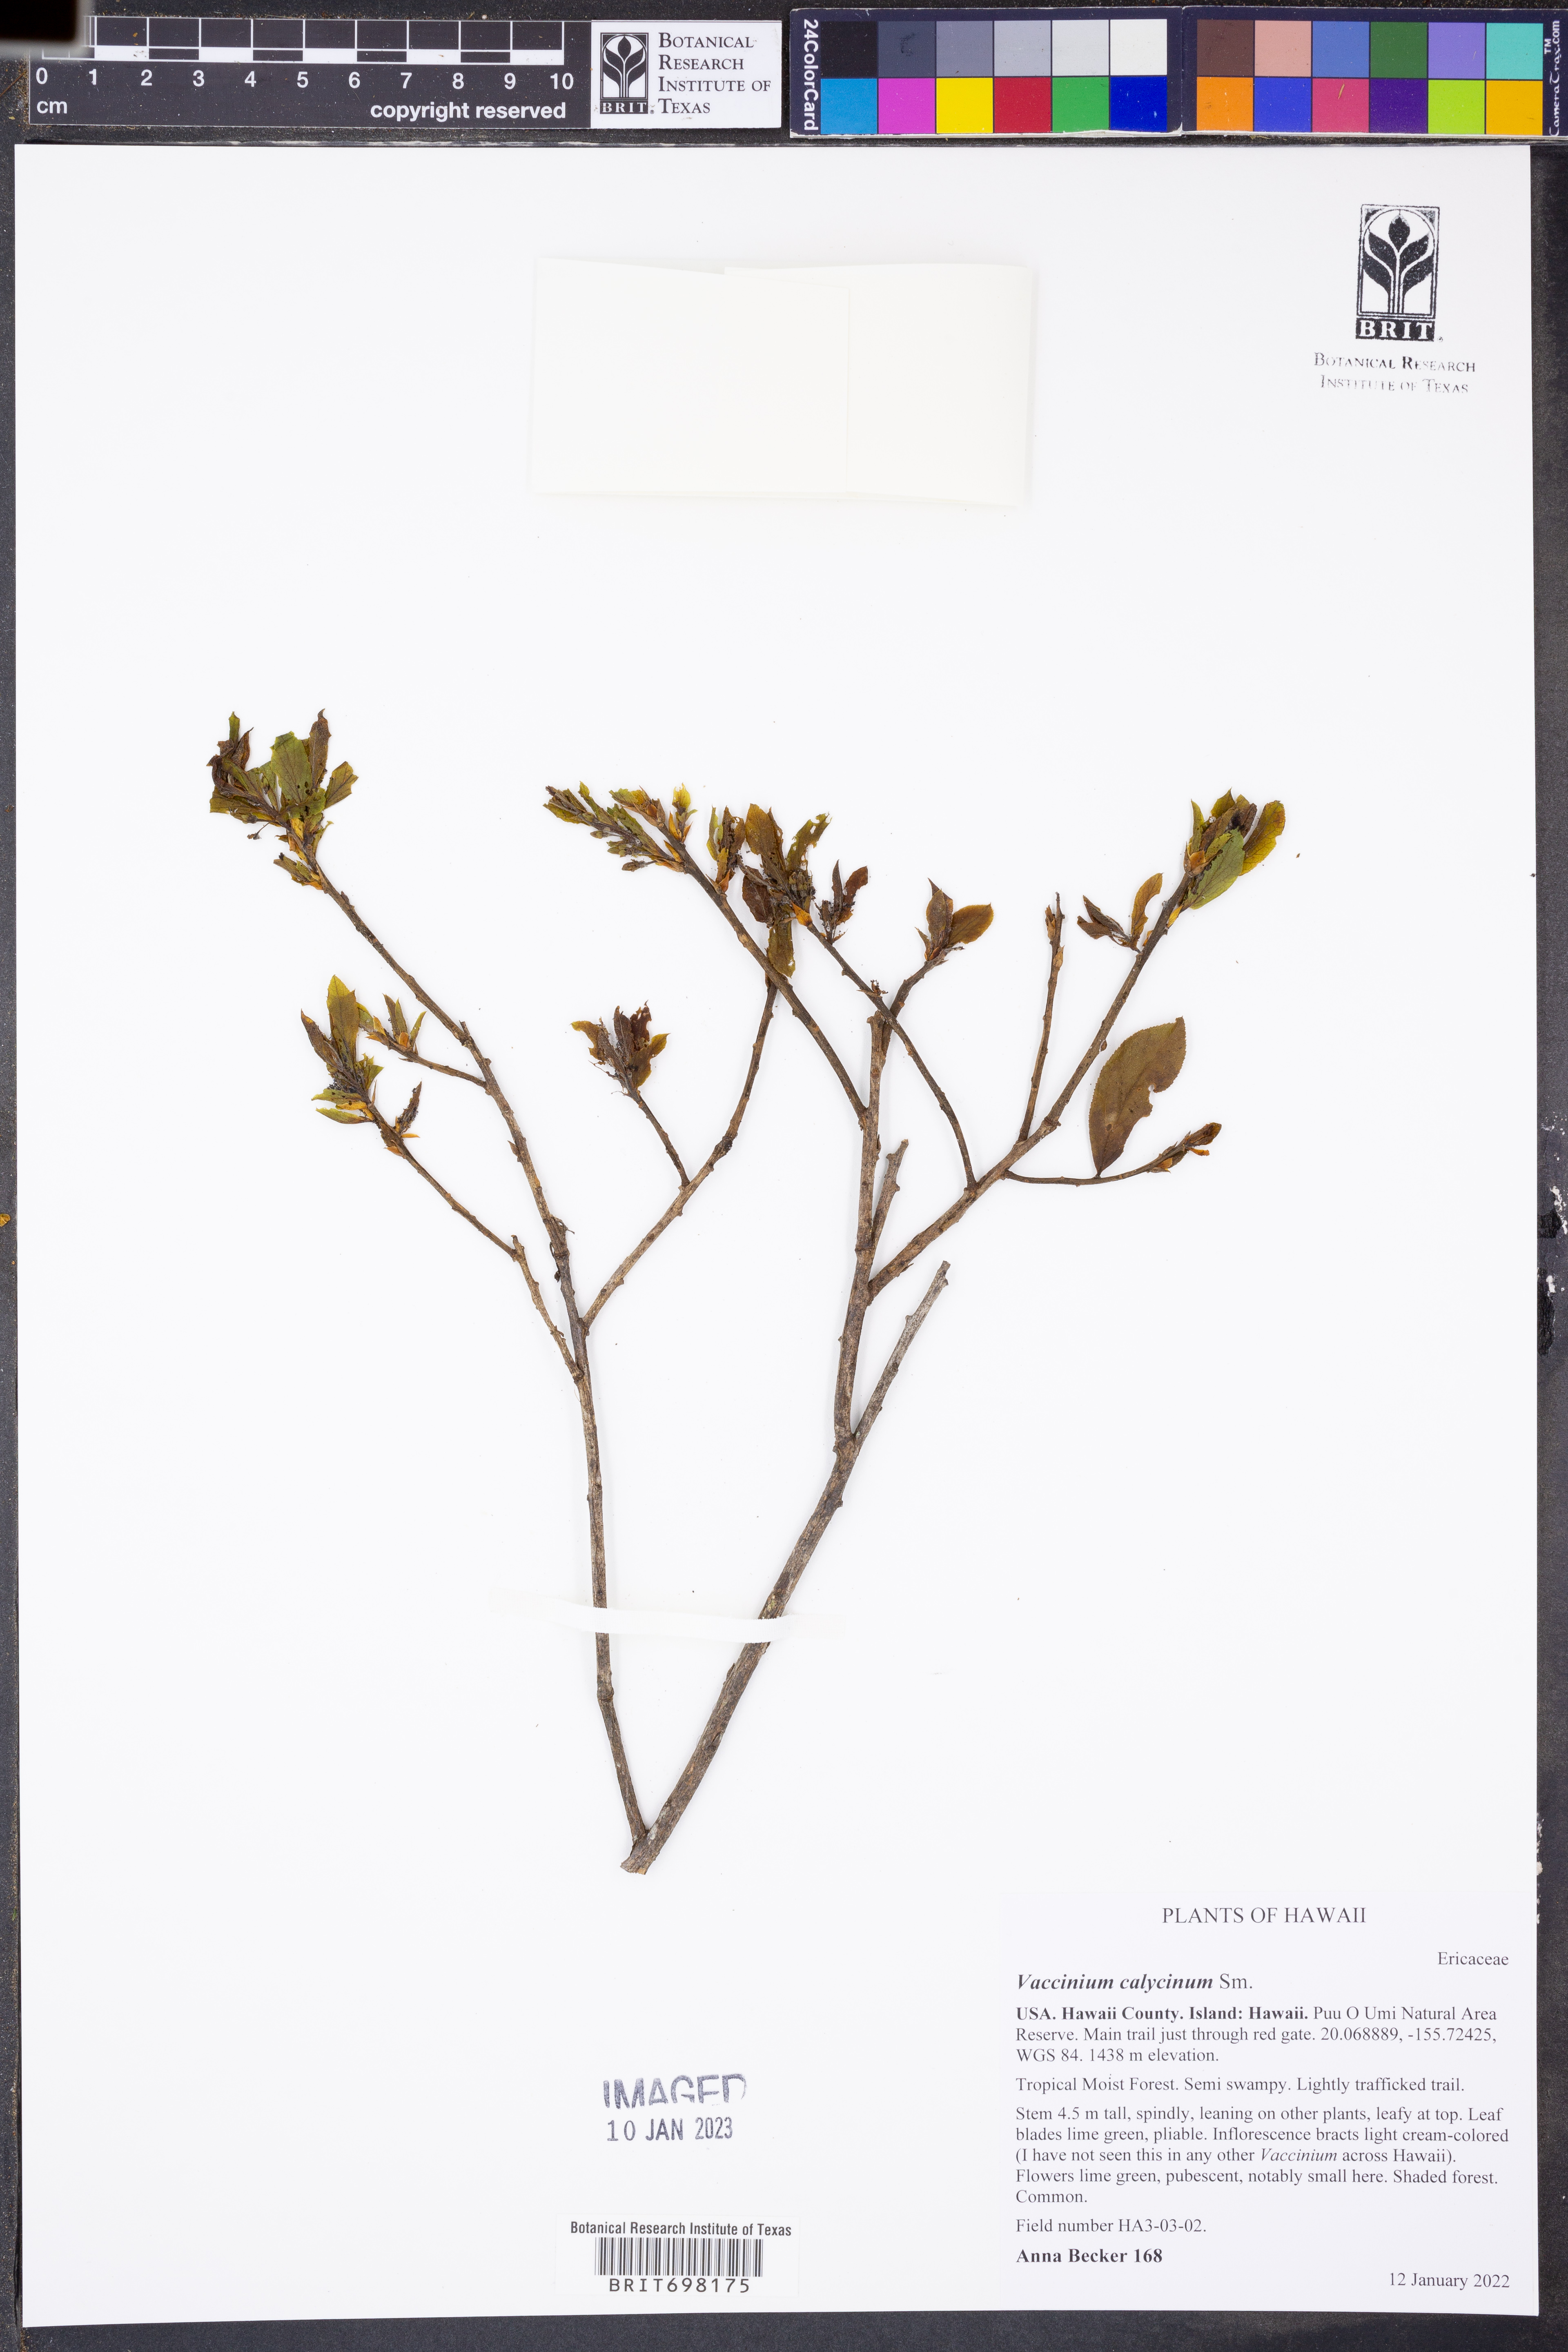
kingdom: Plantae
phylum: Tracheophyta
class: Magnoliopsida
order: Ericales
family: Ericaceae
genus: Vaccinium
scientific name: Vaccinium calycinum
